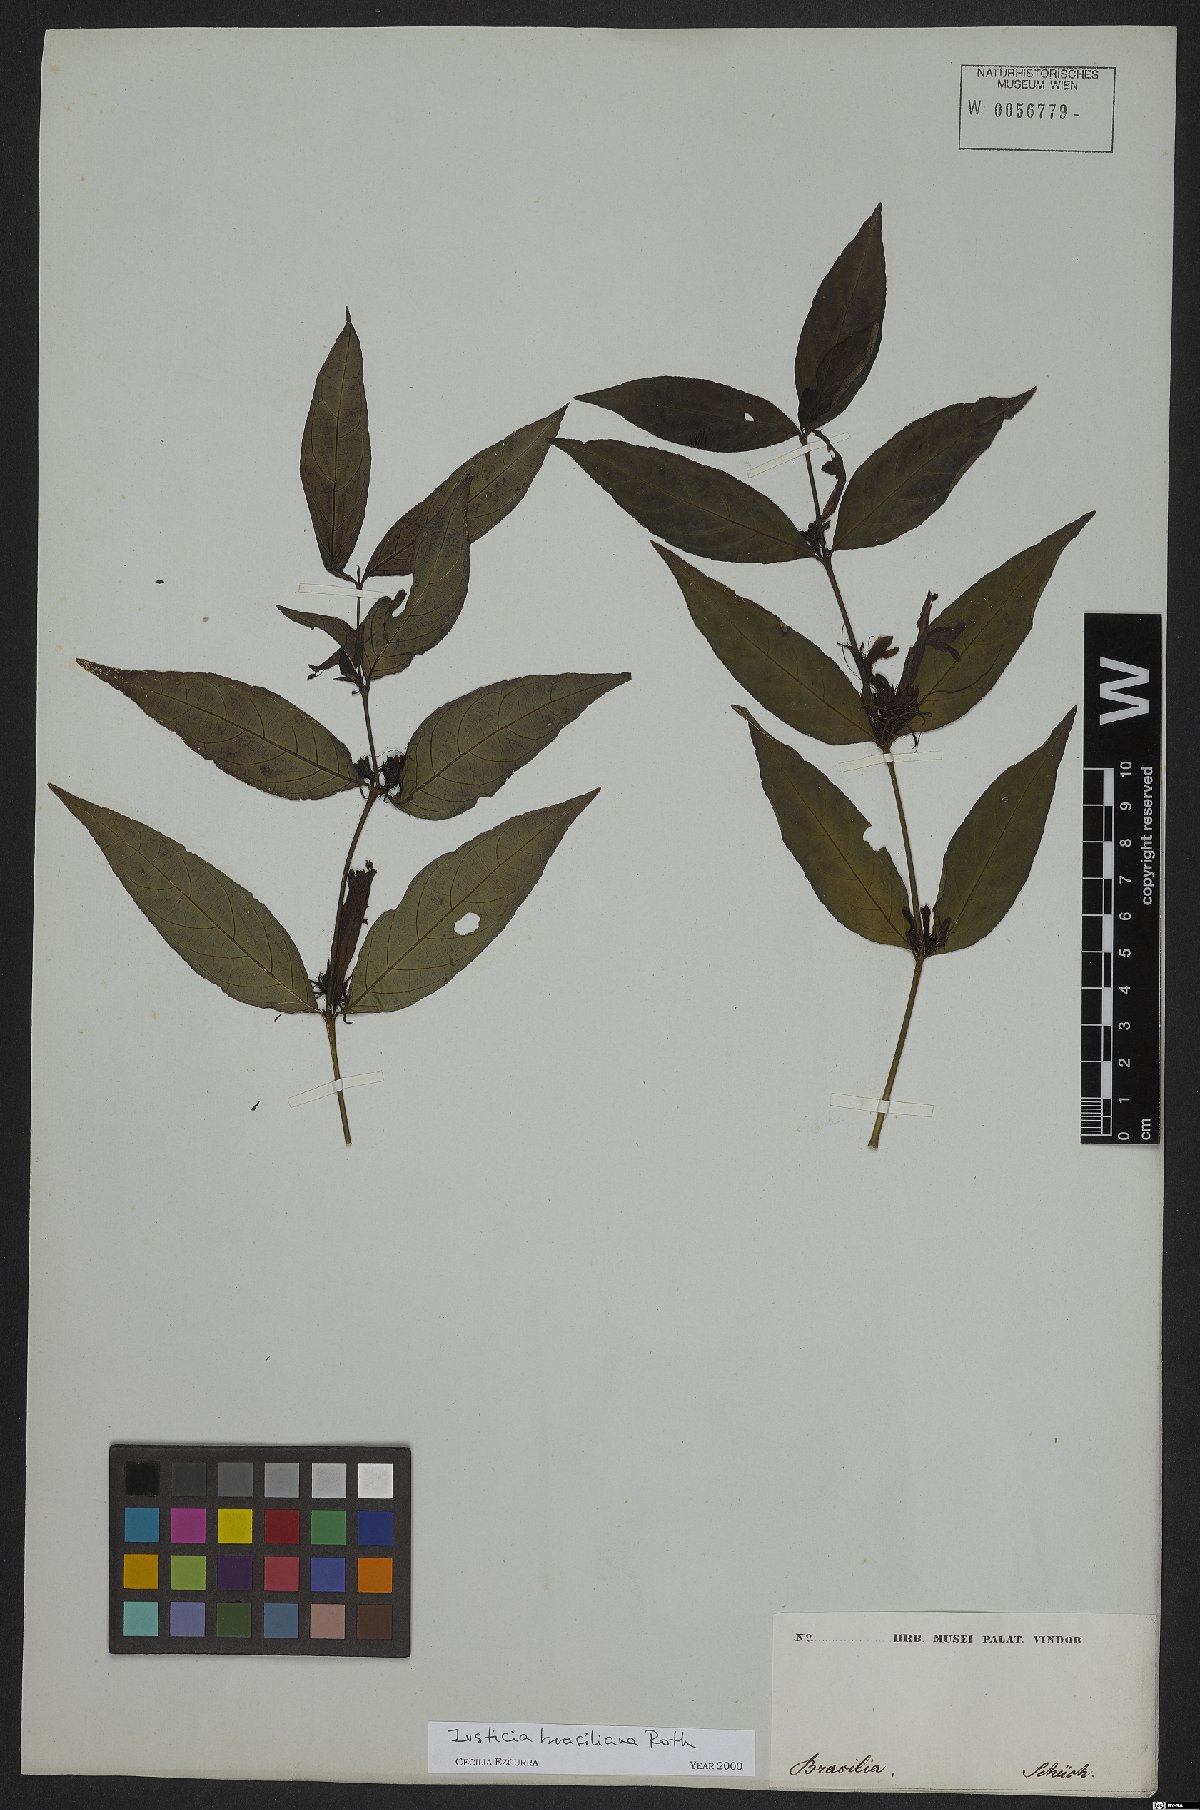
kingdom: Plantae
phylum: Tracheophyta
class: Magnoliopsida
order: Lamiales
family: Acanthaceae
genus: Justicia
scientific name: Justicia brasiliana
